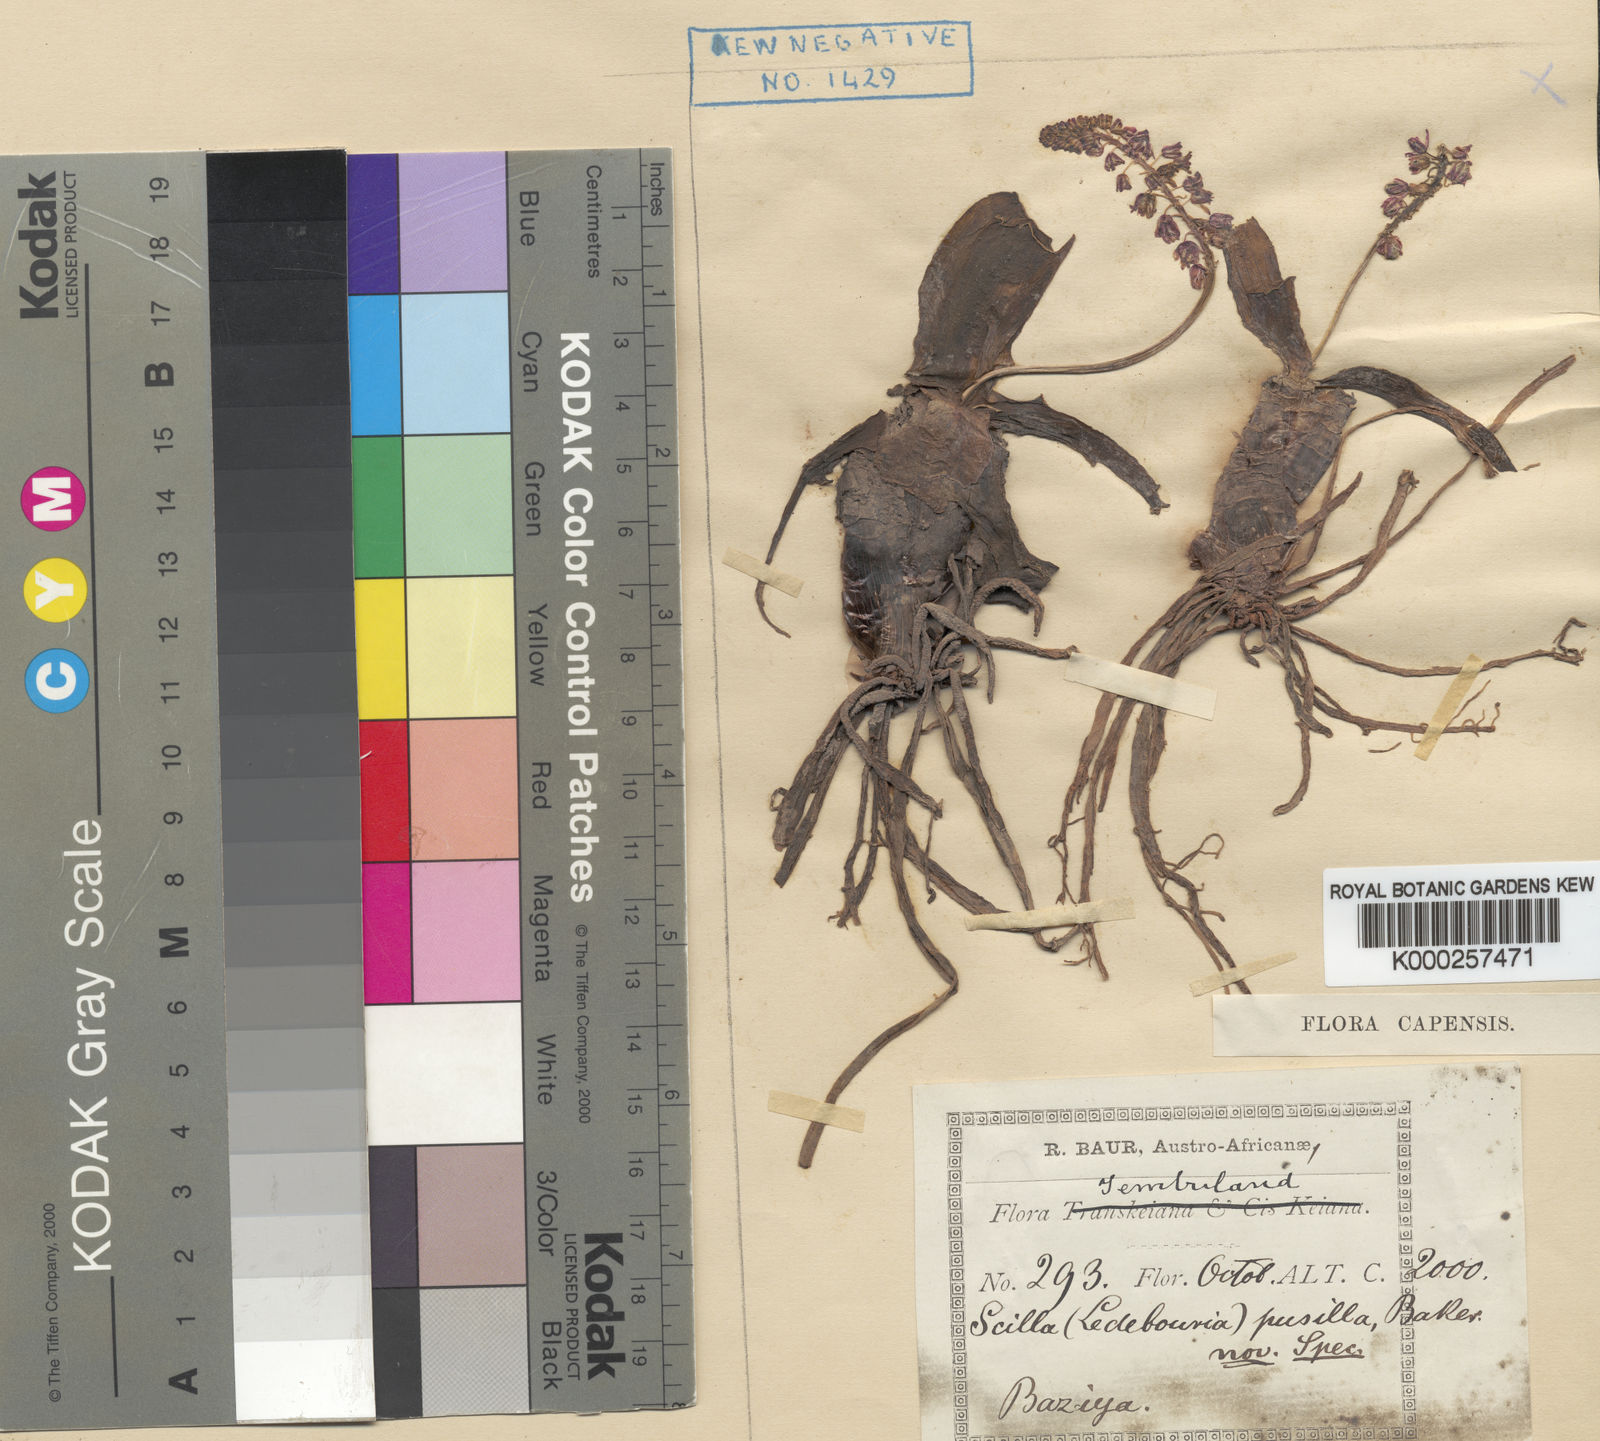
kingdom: Plantae
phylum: Tracheophyta
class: Liliopsida
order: Asparagales
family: Asparagaceae
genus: Ledebouria
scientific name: Ledebouria cooperi
